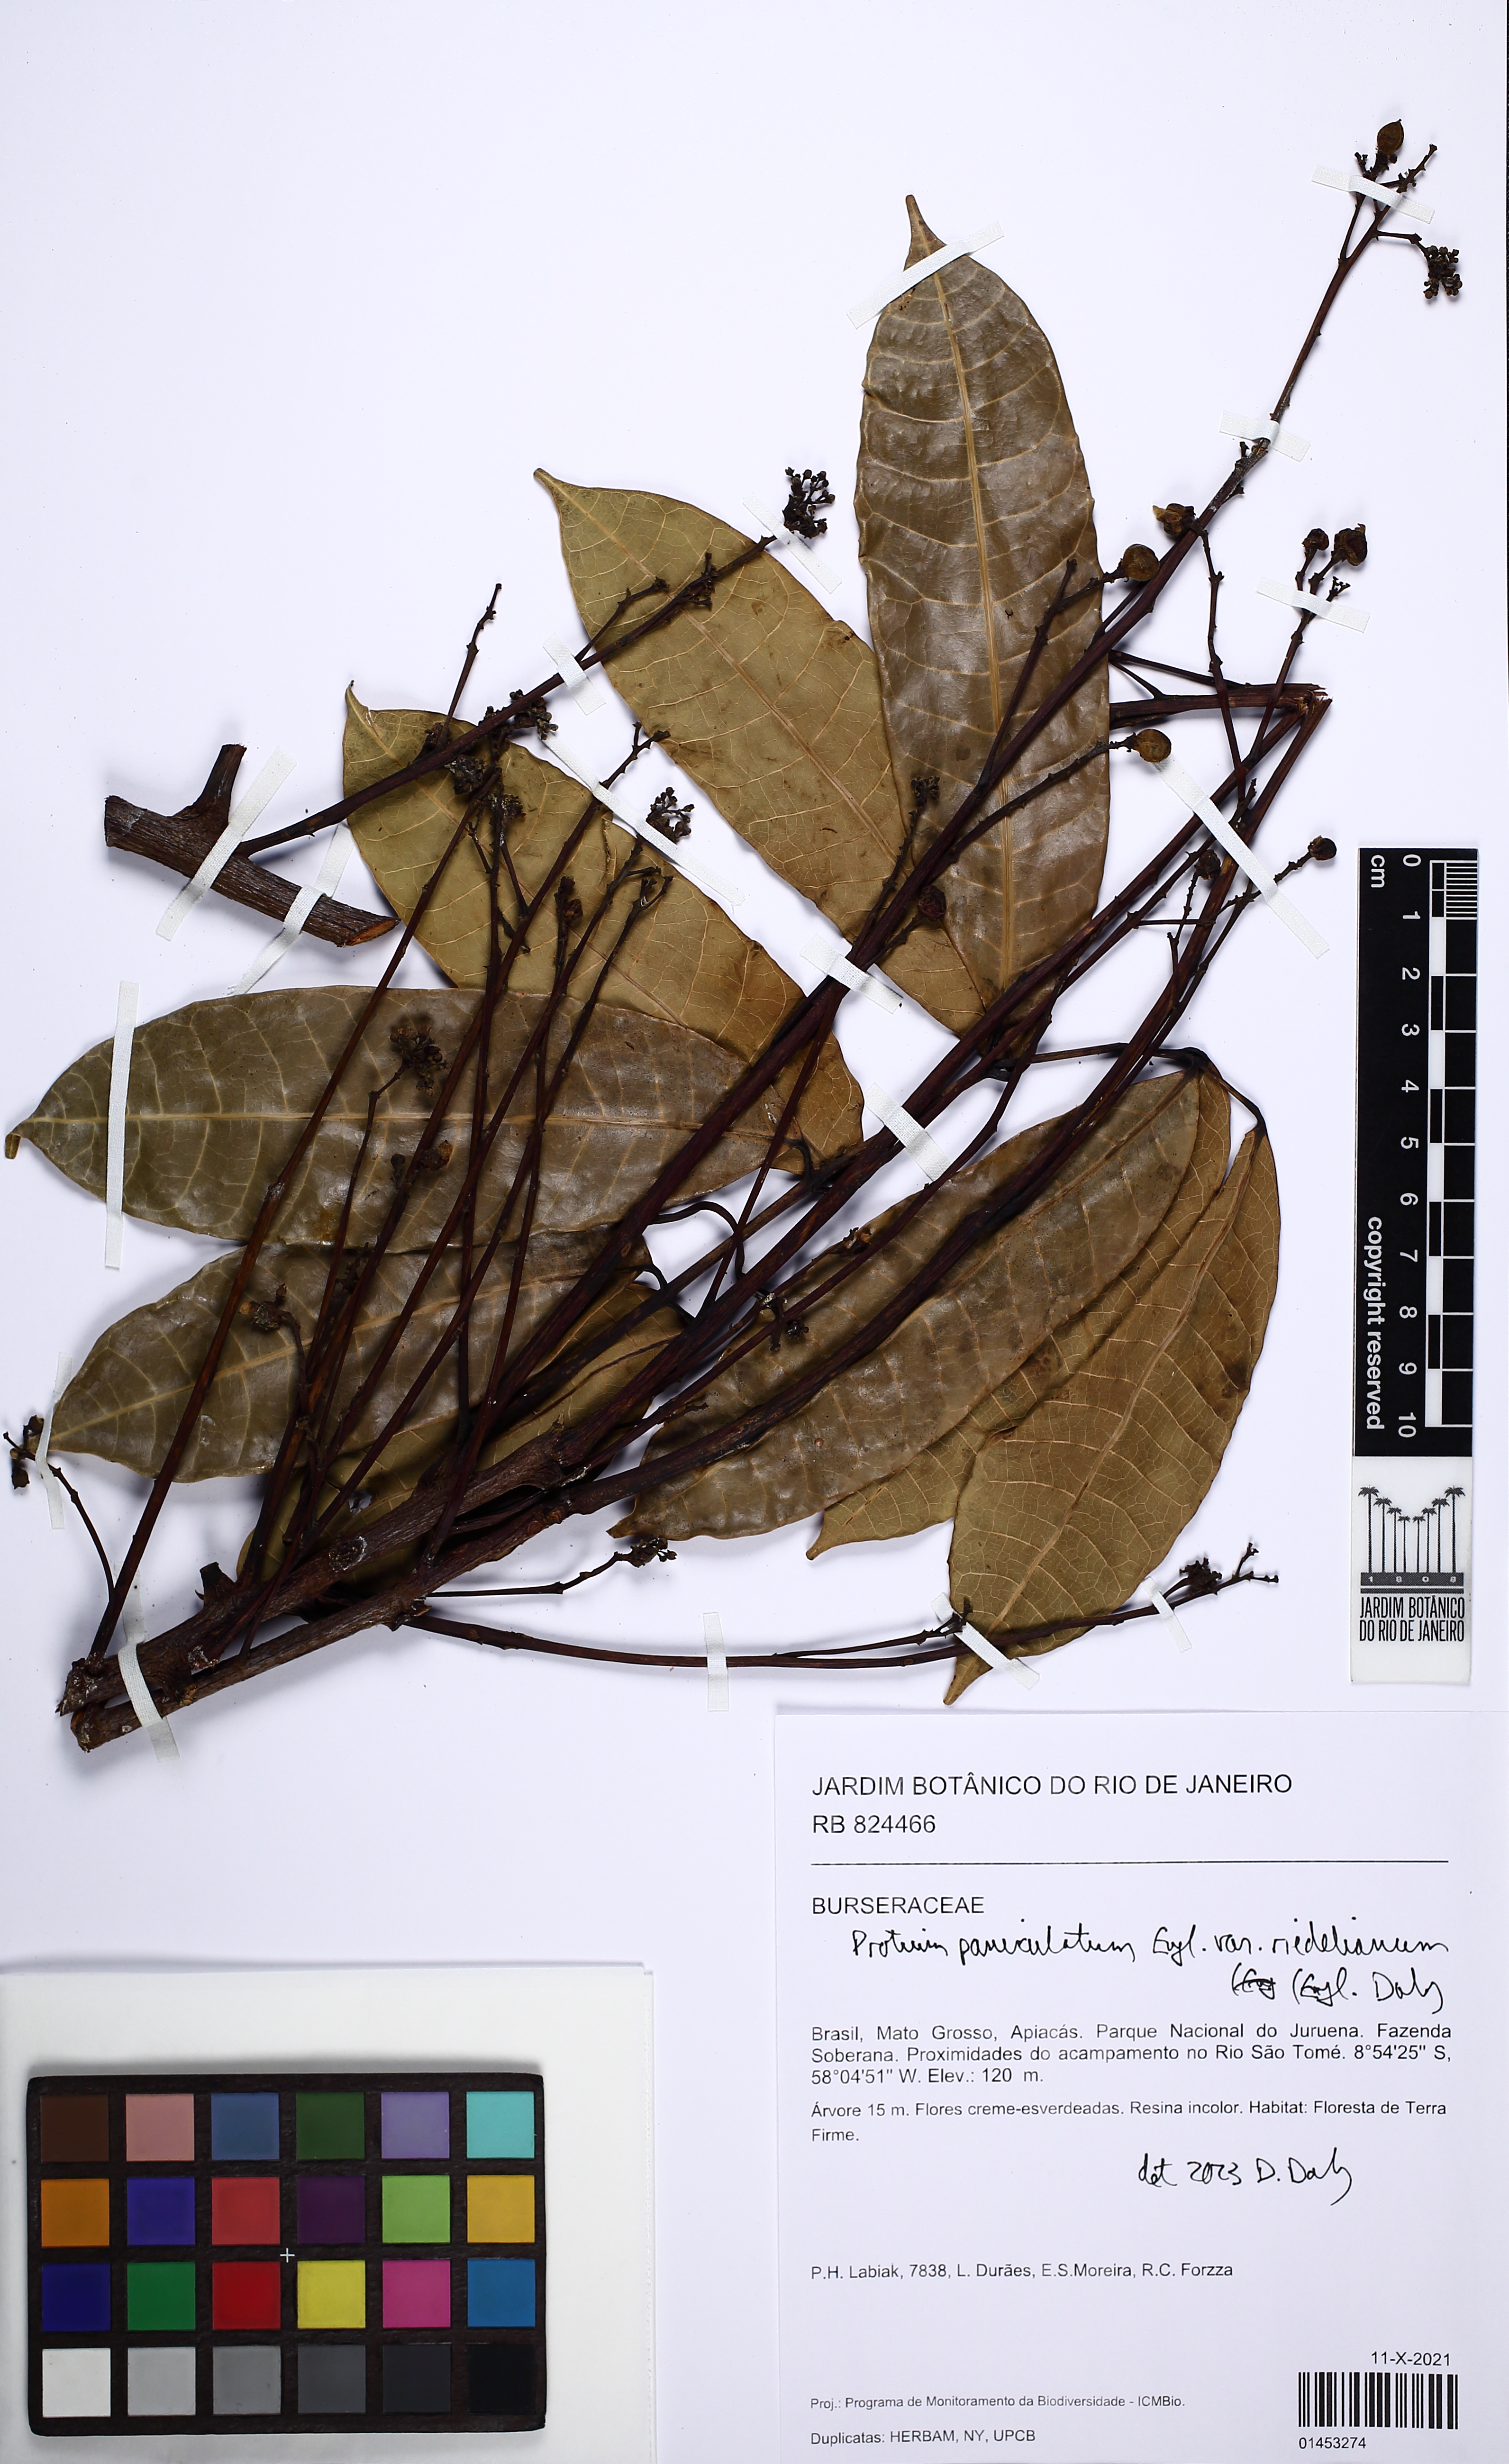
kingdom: Plantae
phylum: Tracheophyta
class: Magnoliopsida
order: Sapindales
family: Burseraceae
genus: Protium
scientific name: Protium paniculatum
